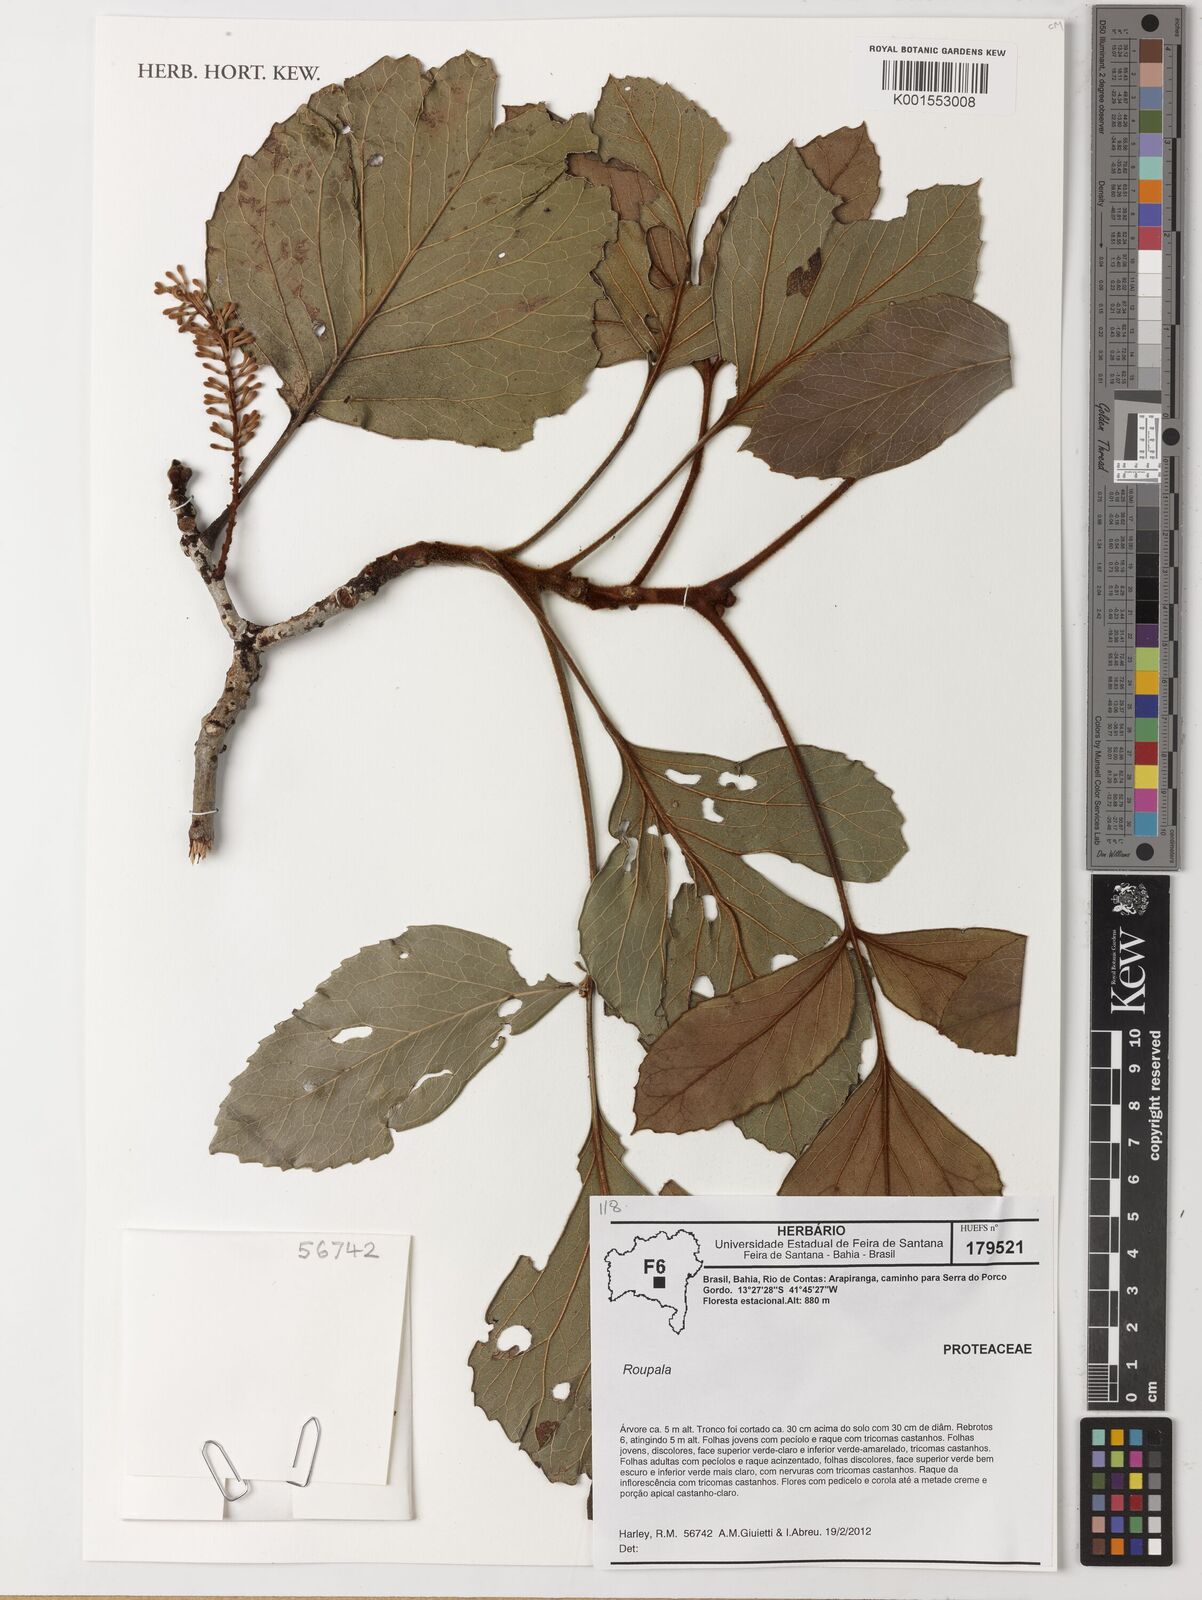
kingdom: Plantae
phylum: Tracheophyta
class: Magnoliopsida
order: Proteales
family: Proteaceae
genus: Roupala
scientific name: Roupala
